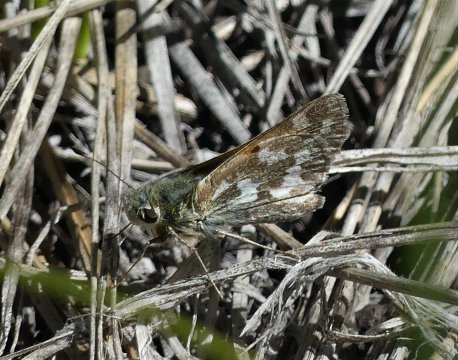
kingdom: Animalia
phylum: Arthropoda
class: Insecta
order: Lepidoptera
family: Hesperiidae
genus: Hesperia
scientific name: Hesperia juba
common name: Juba Skipper
